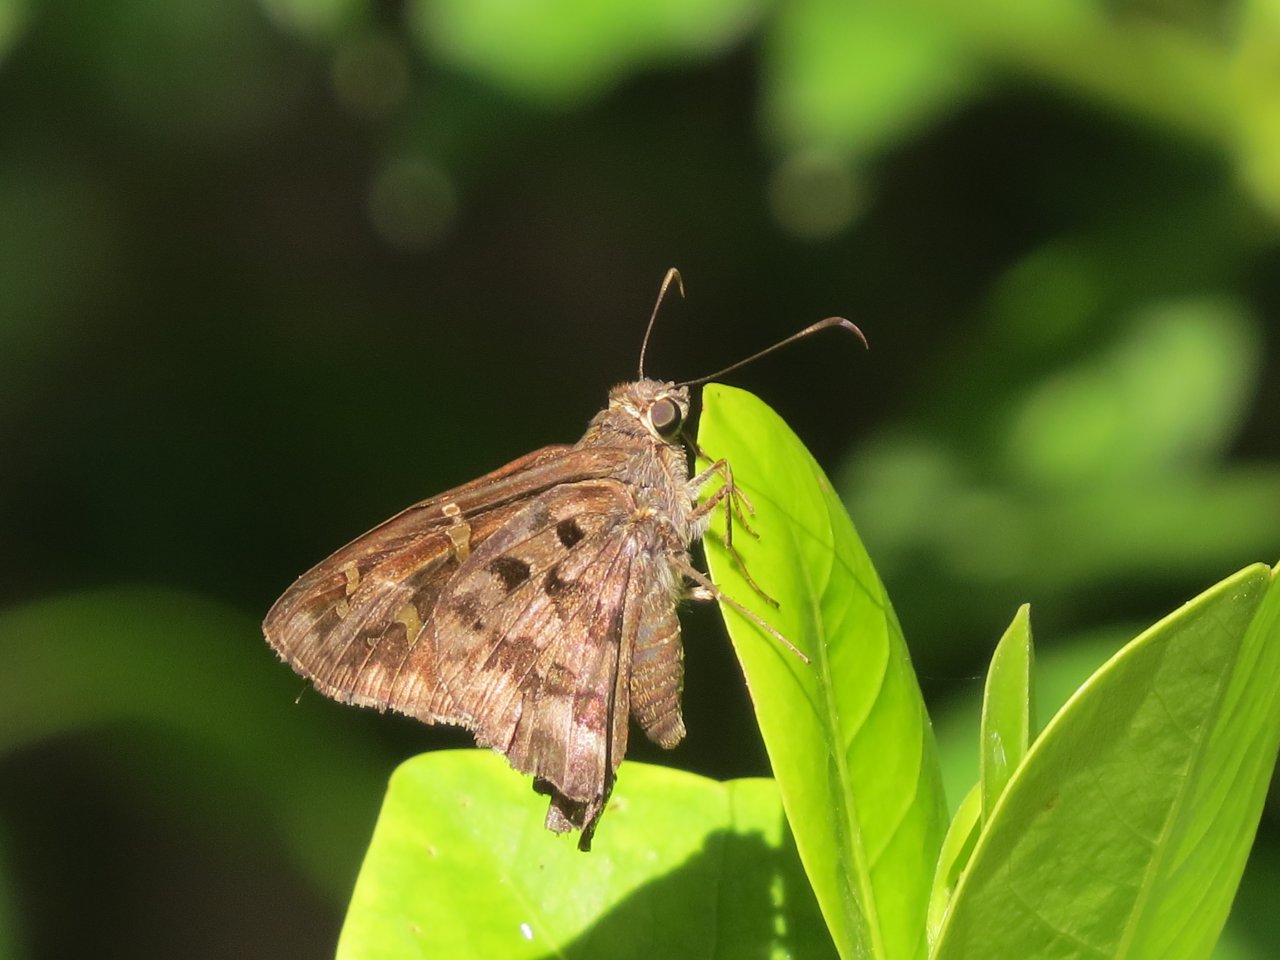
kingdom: Animalia
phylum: Arthropoda
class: Insecta
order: Lepidoptera
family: Hesperiidae
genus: Polygonus
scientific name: Polygonus leo
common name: Hammock Skipper
